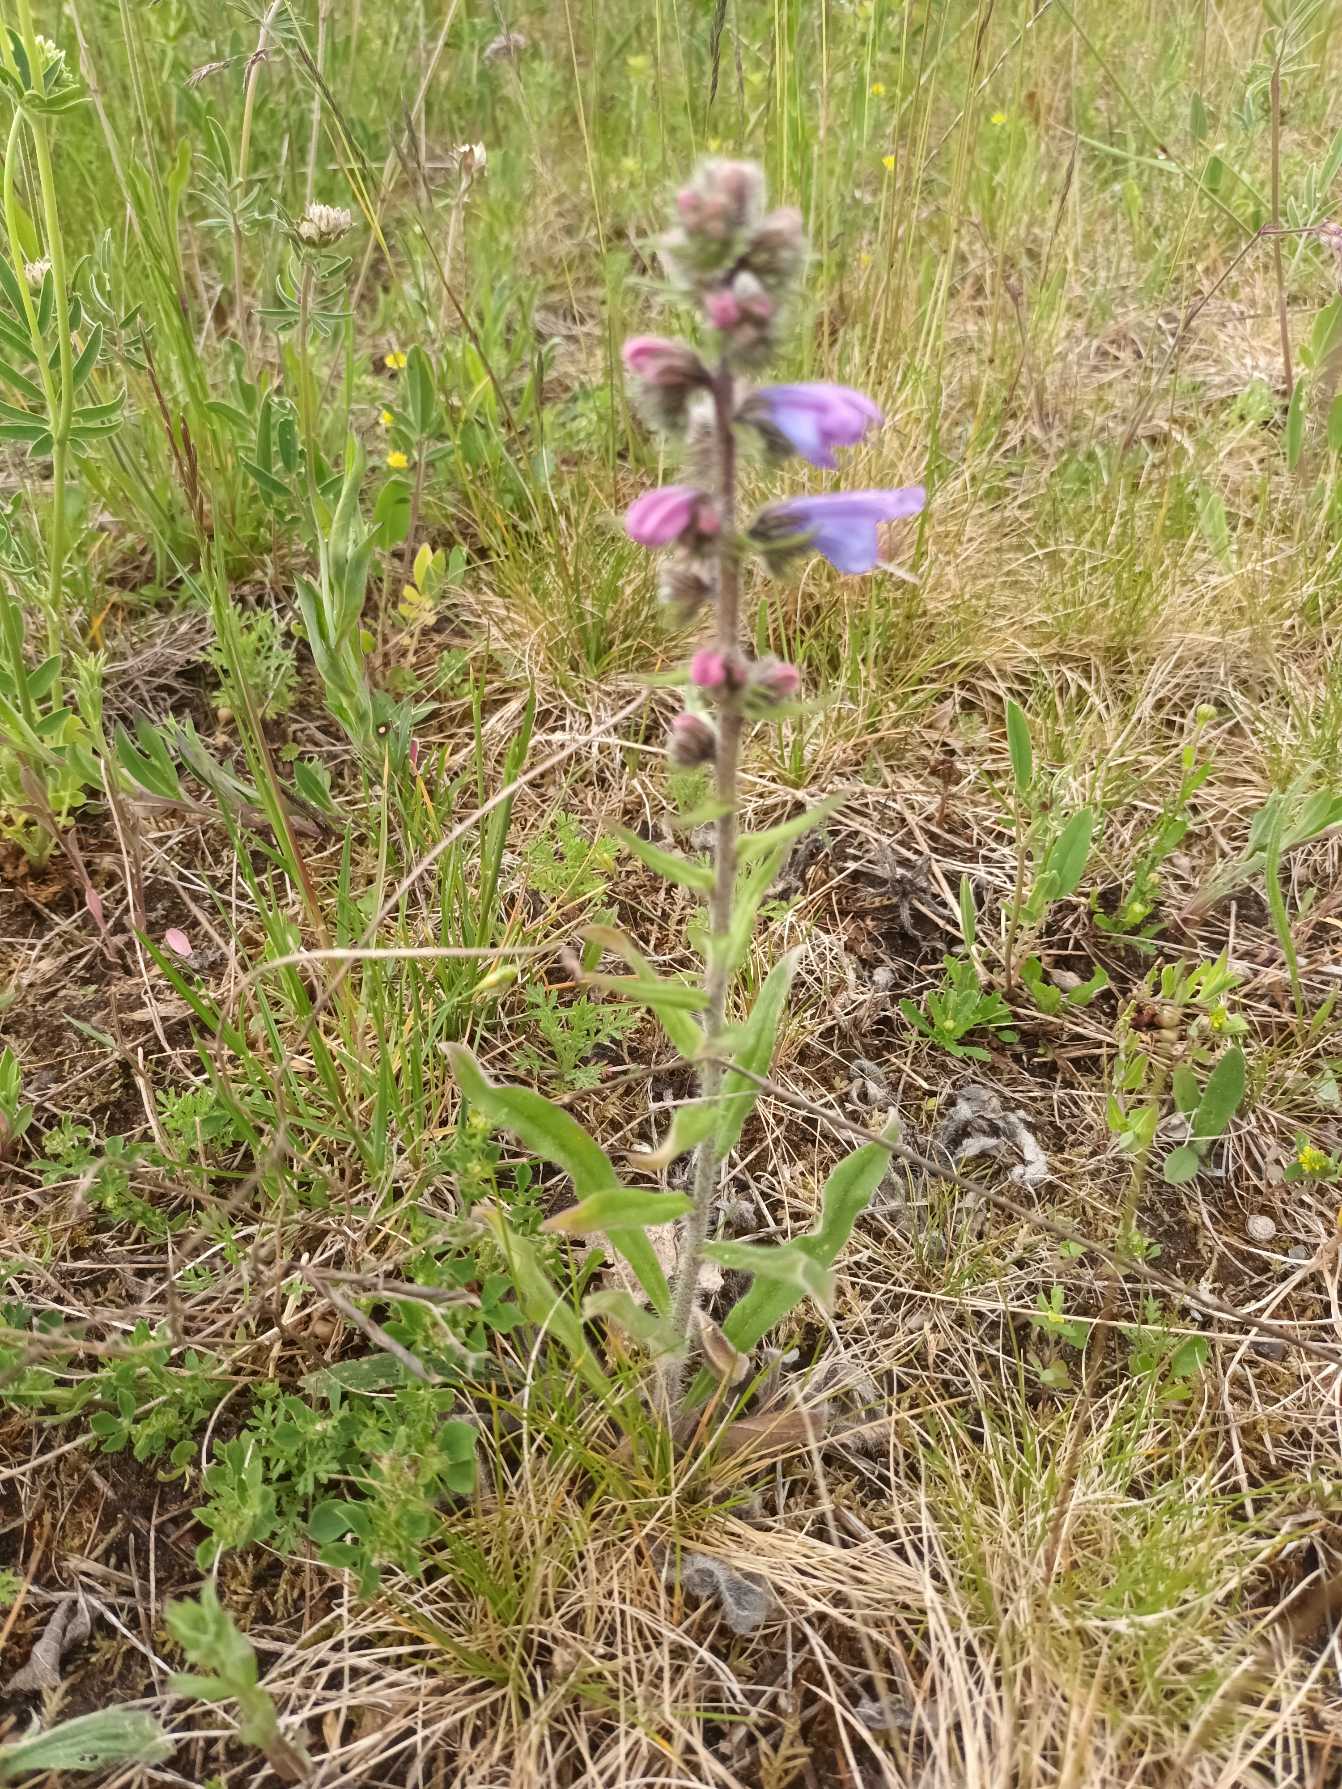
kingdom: Plantae
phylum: Tracheophyta
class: Magnoliopsida
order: Boraginales
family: Boraginaceae
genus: Echium
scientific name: Echium vulgare
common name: Slangehoved
